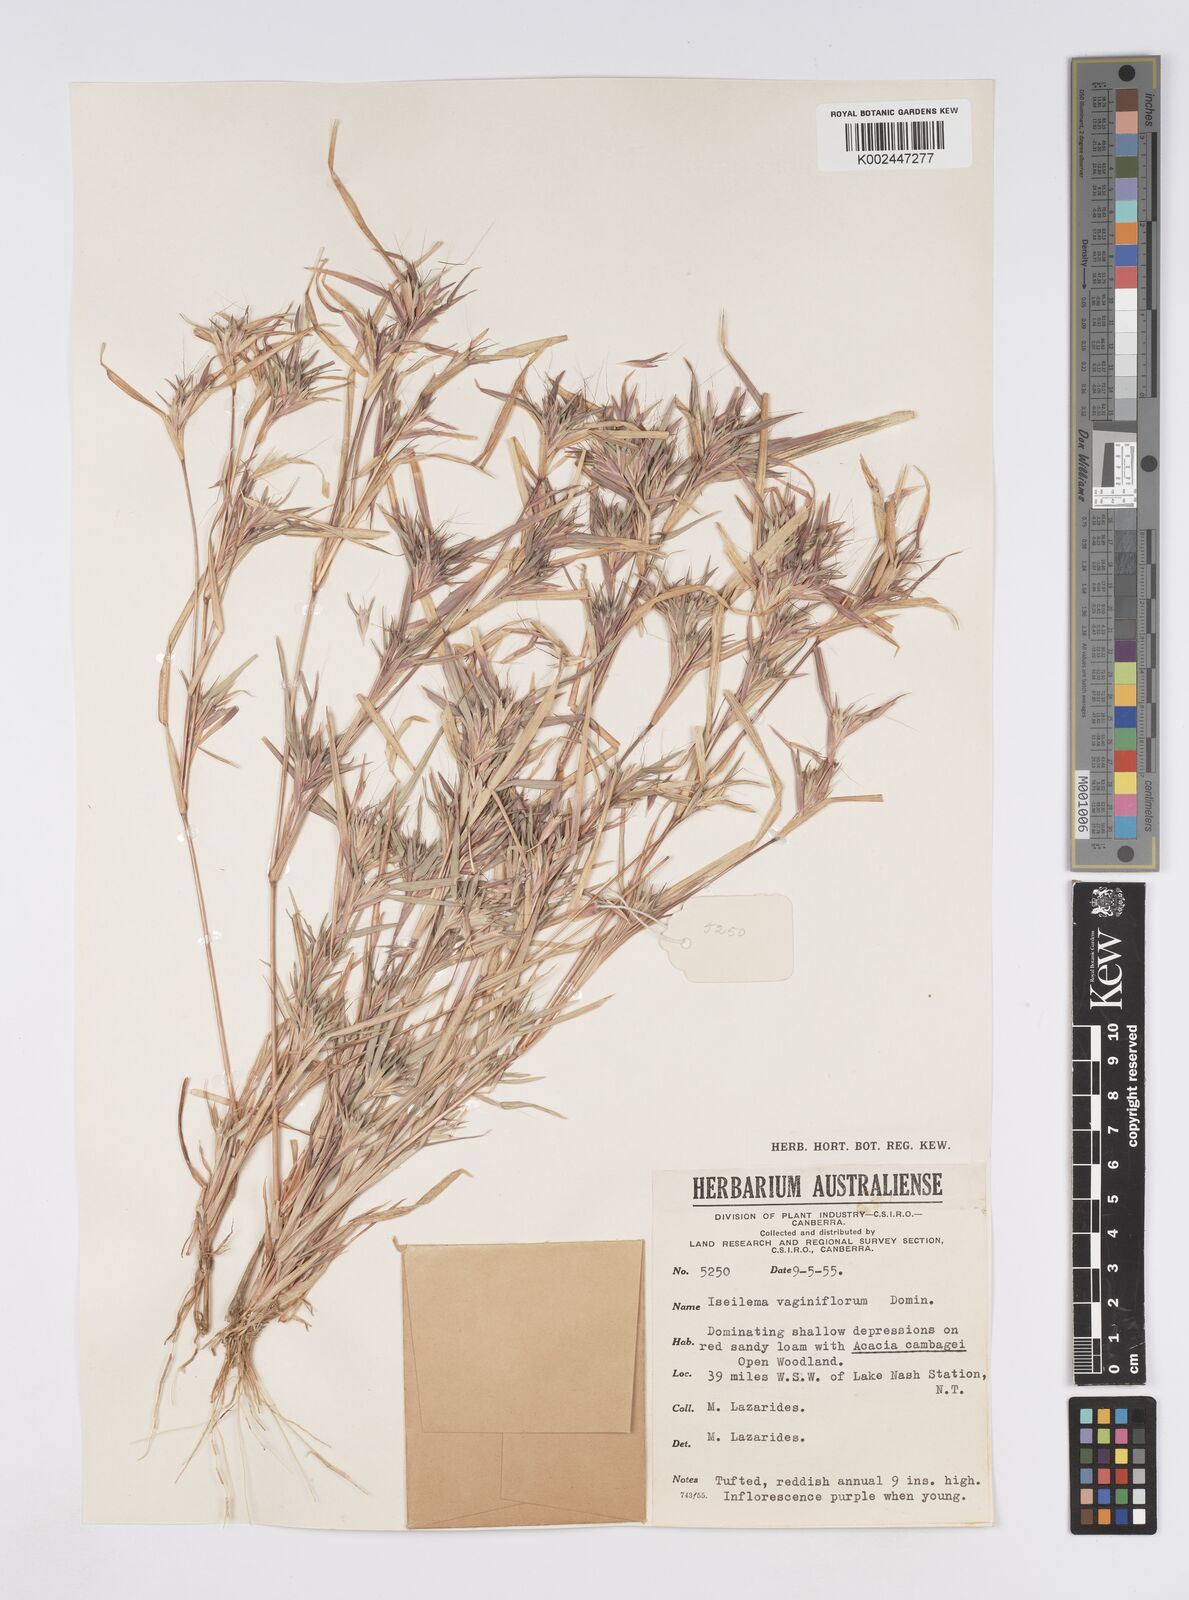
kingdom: Plantae
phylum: Tracheophyta
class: Liliopsida
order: Poales
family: Poaceae
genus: Iseilema
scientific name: Iseilema vaginiflorum
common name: Red flinders grass
